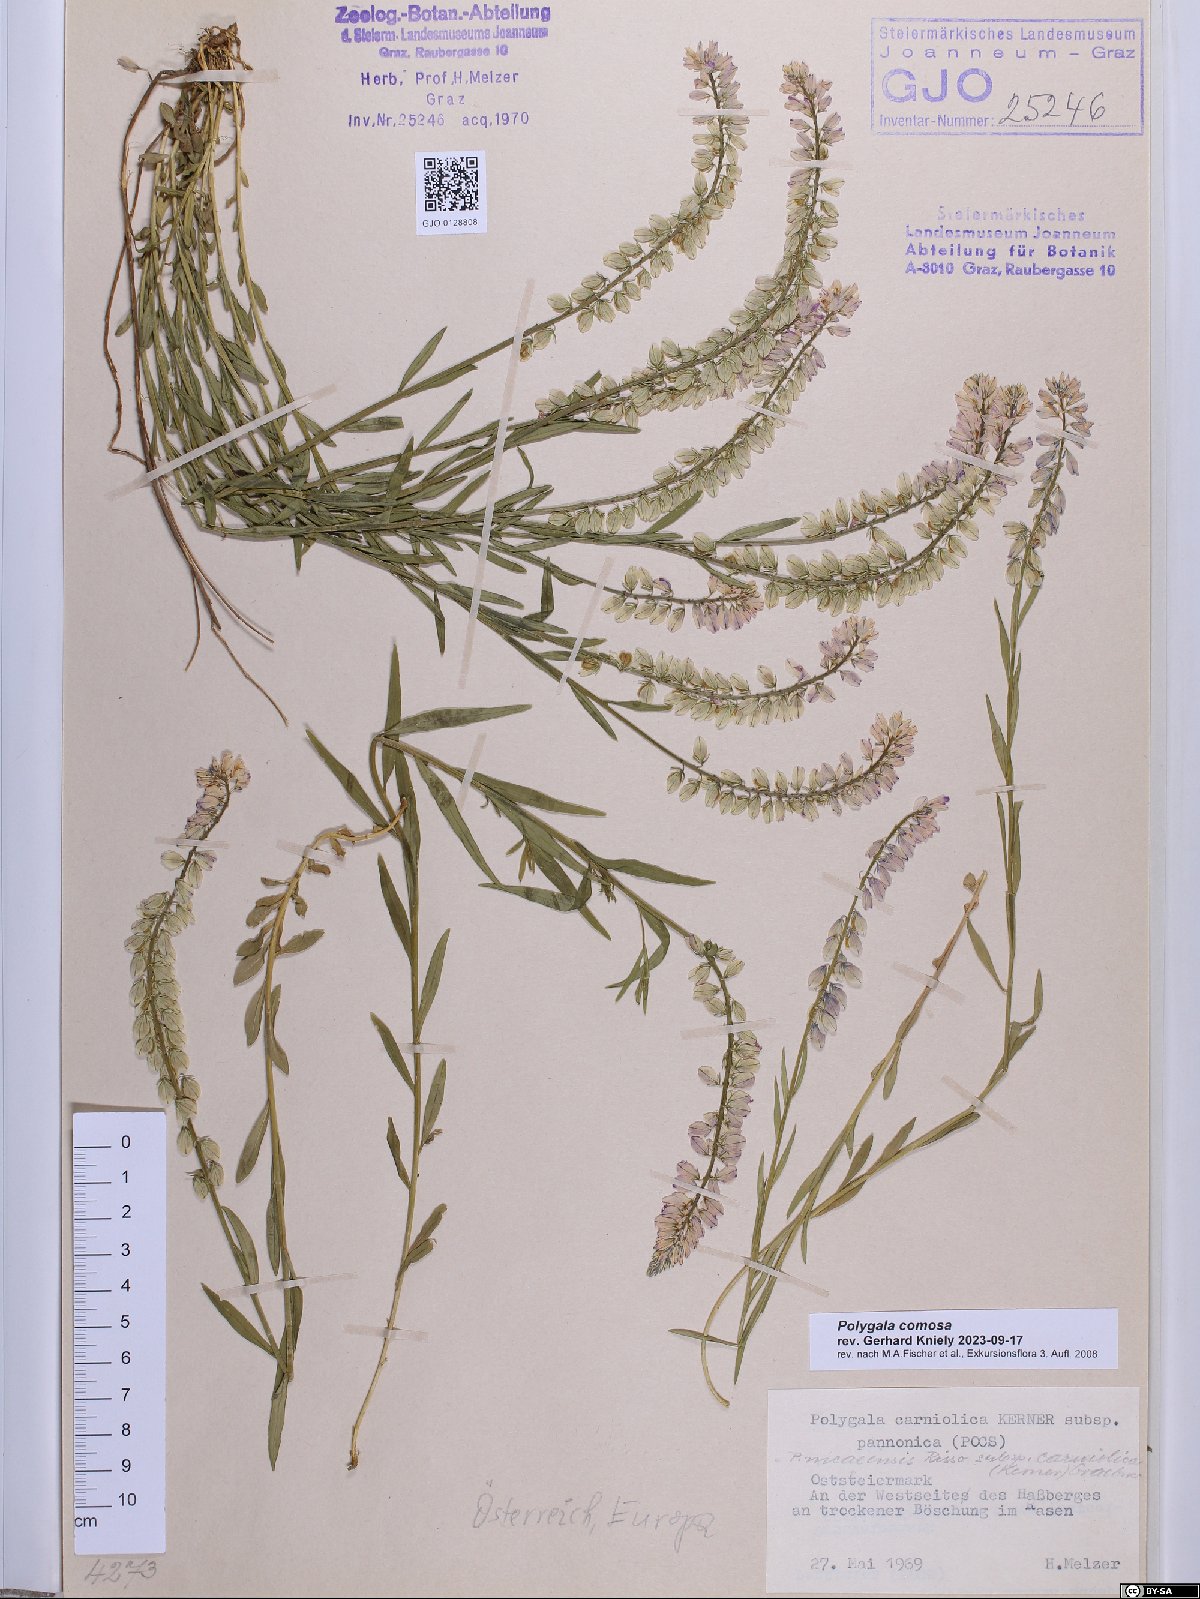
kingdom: Plantae
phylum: Tracheophyta
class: Magnoliopsida
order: Fabales
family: Polygalaceae
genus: Polygala
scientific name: Polygala comosa
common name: Tufted milkwort
